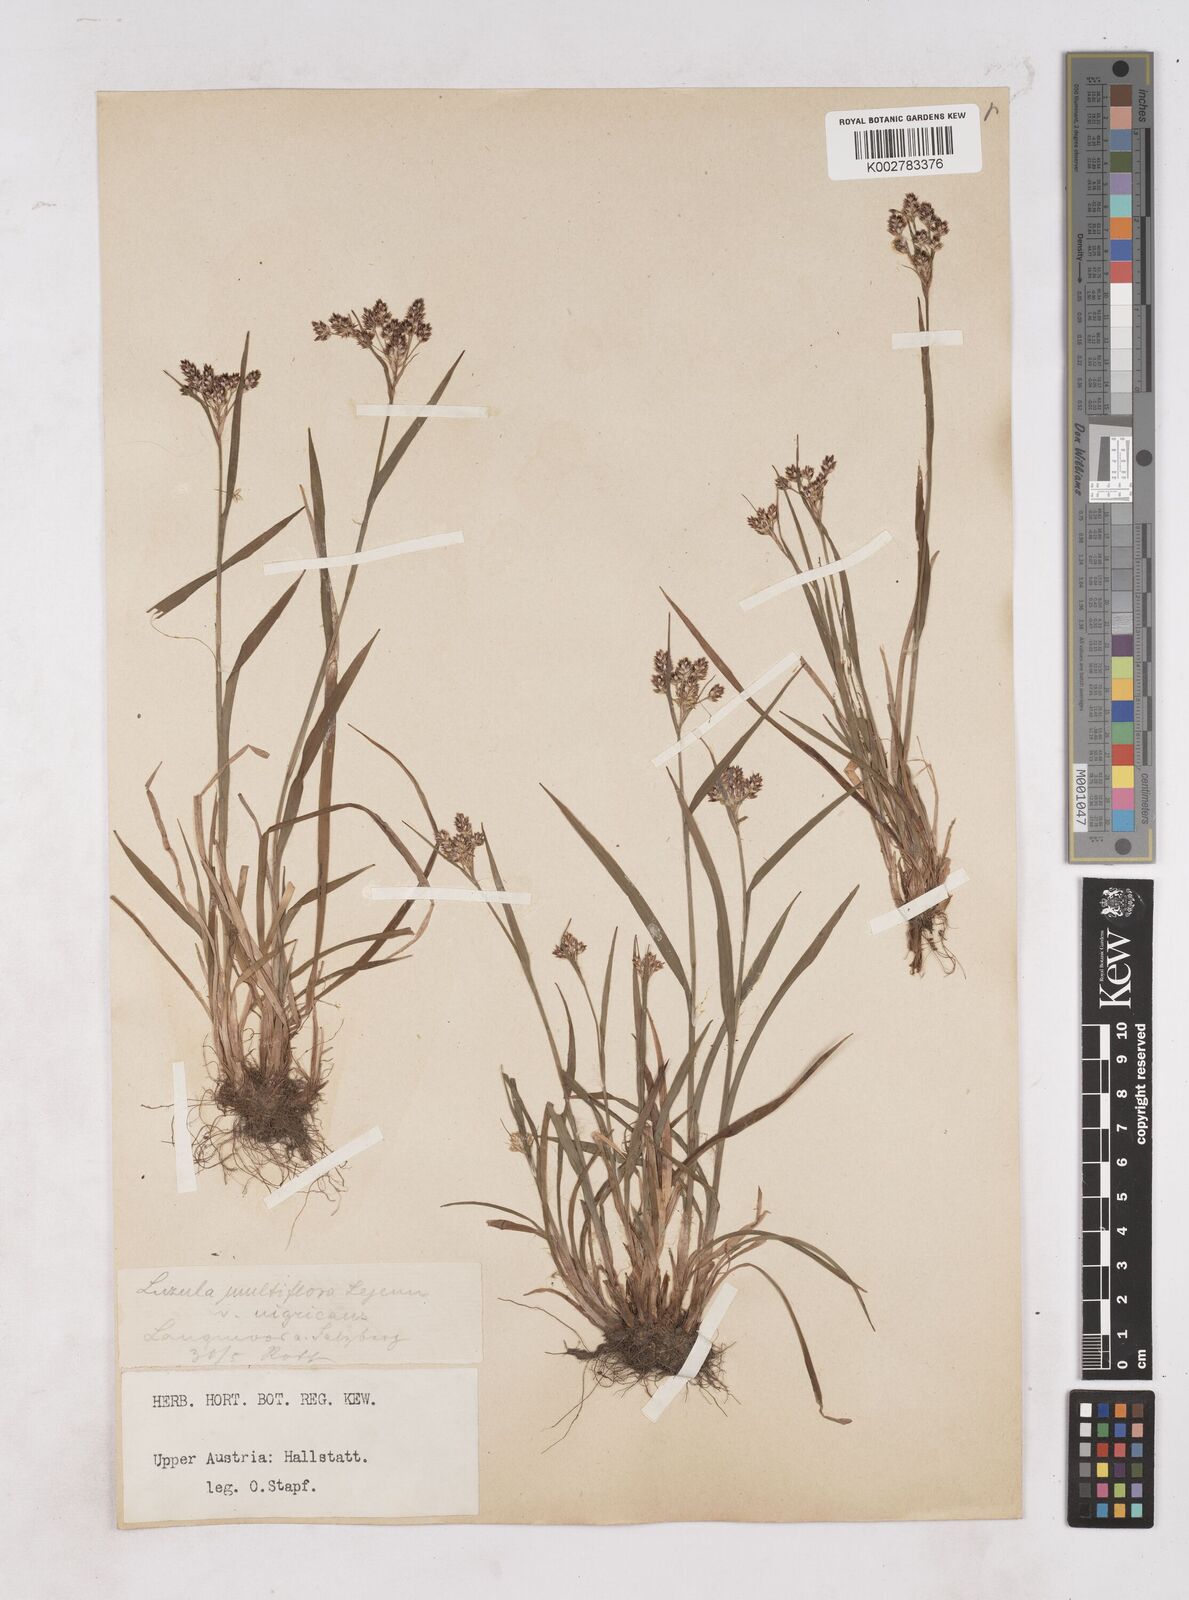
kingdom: Plantae
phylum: Tracheophyta
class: Liliopsida
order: Poales
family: Juncaceae
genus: Luzula
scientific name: Luzula multiflora
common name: Heath wood-rush
